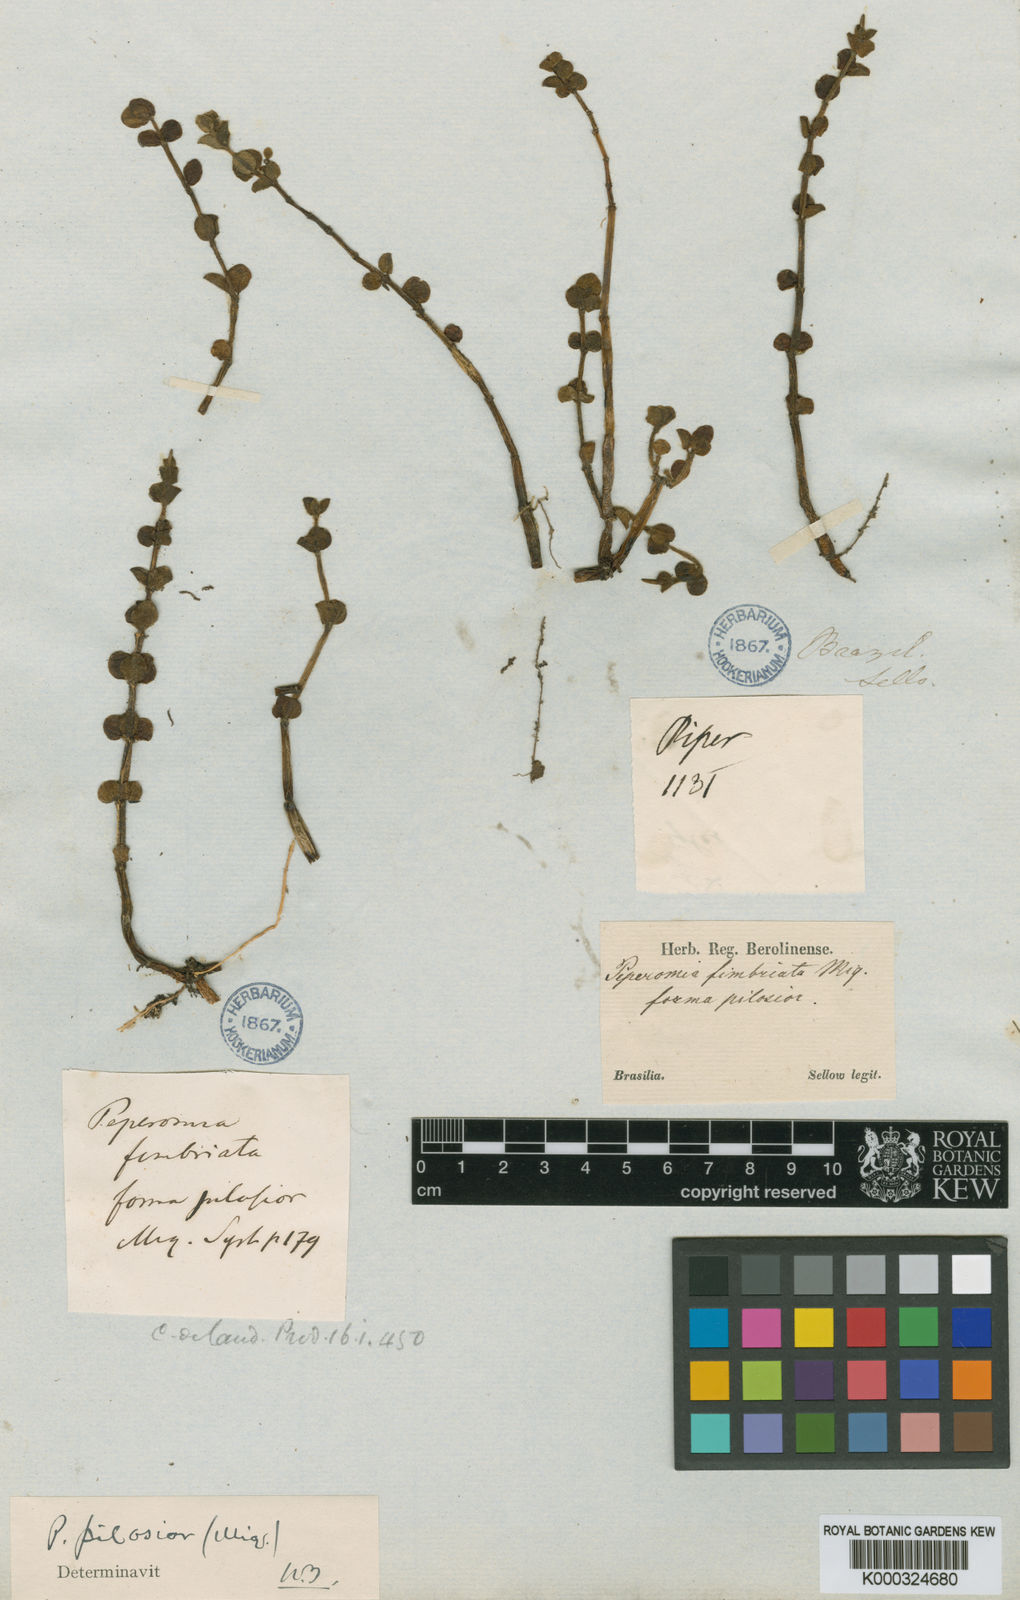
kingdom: Plantae
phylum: Tracheophyta
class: Magnoliopsida
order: Piperales
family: Piperaceae
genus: Peperomia
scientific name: Peperomia subrubrispica
